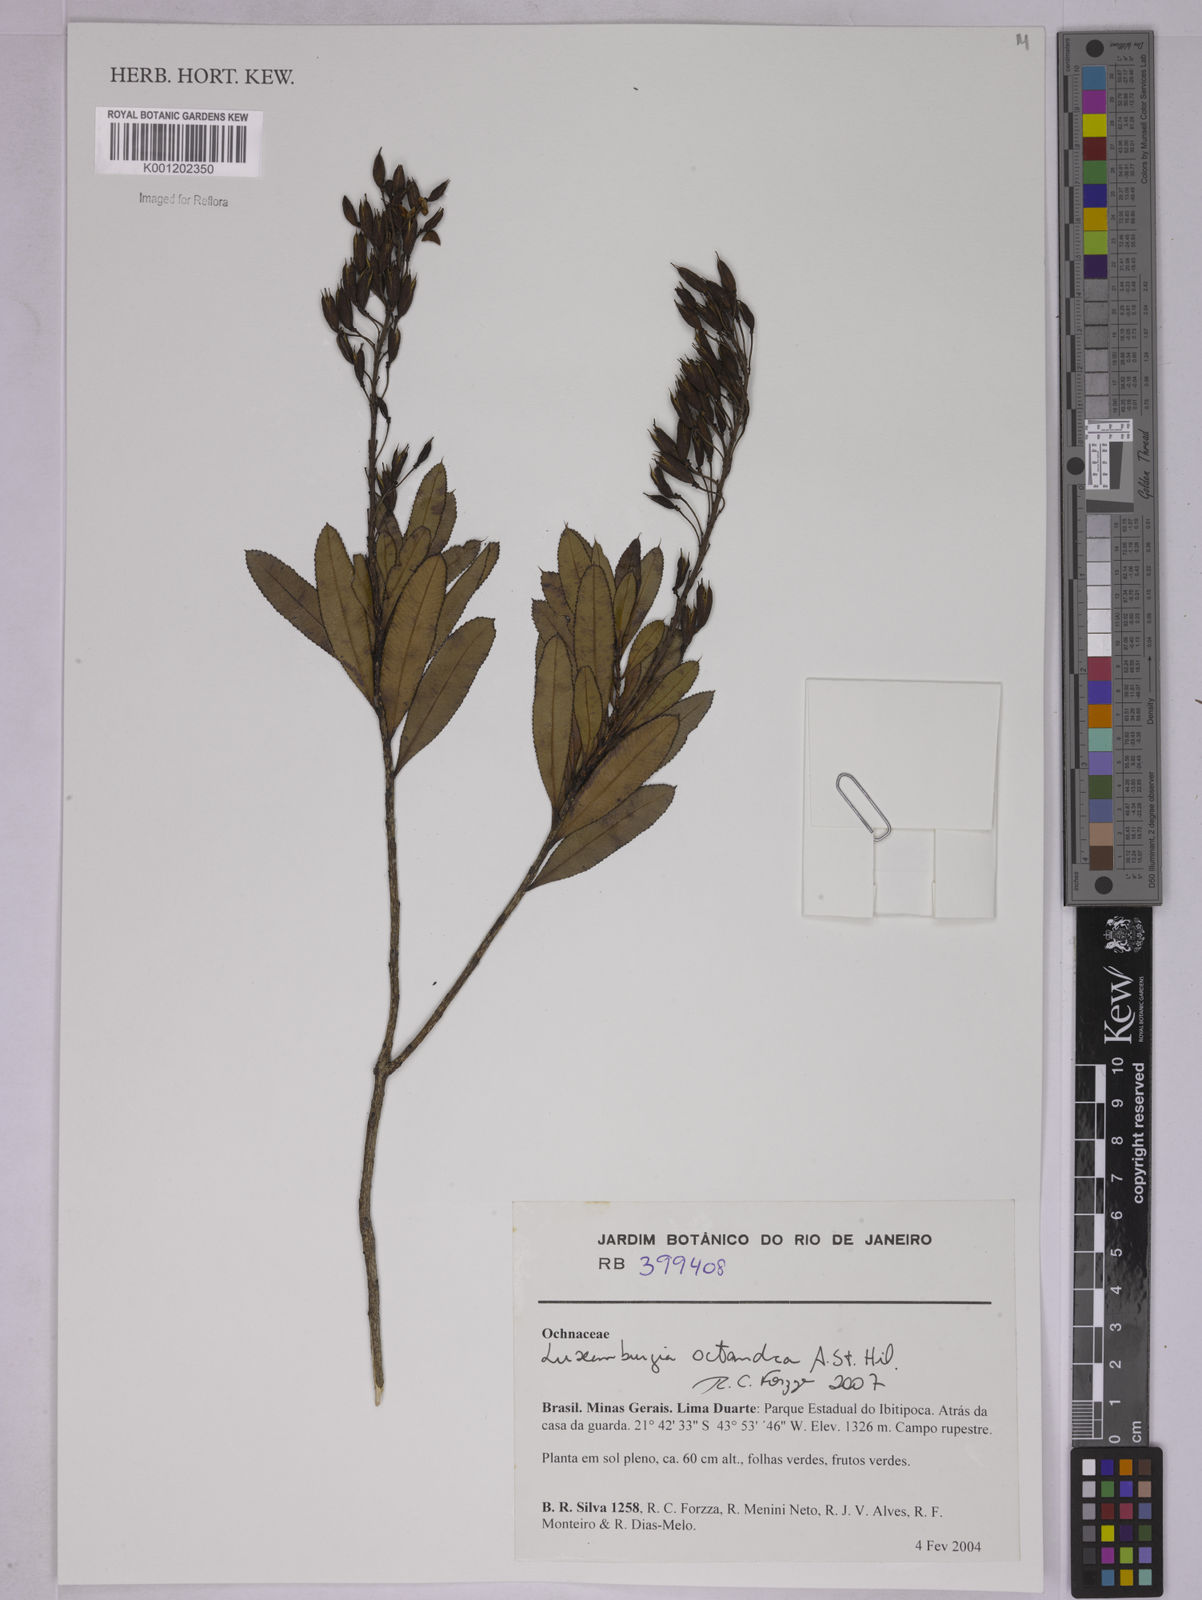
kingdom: Plantae
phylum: Tracheophyta
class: Magnoliopsida
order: Malpighiales
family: Ochnaceae
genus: Luxemburgia
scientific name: Luxemburgia octandra
